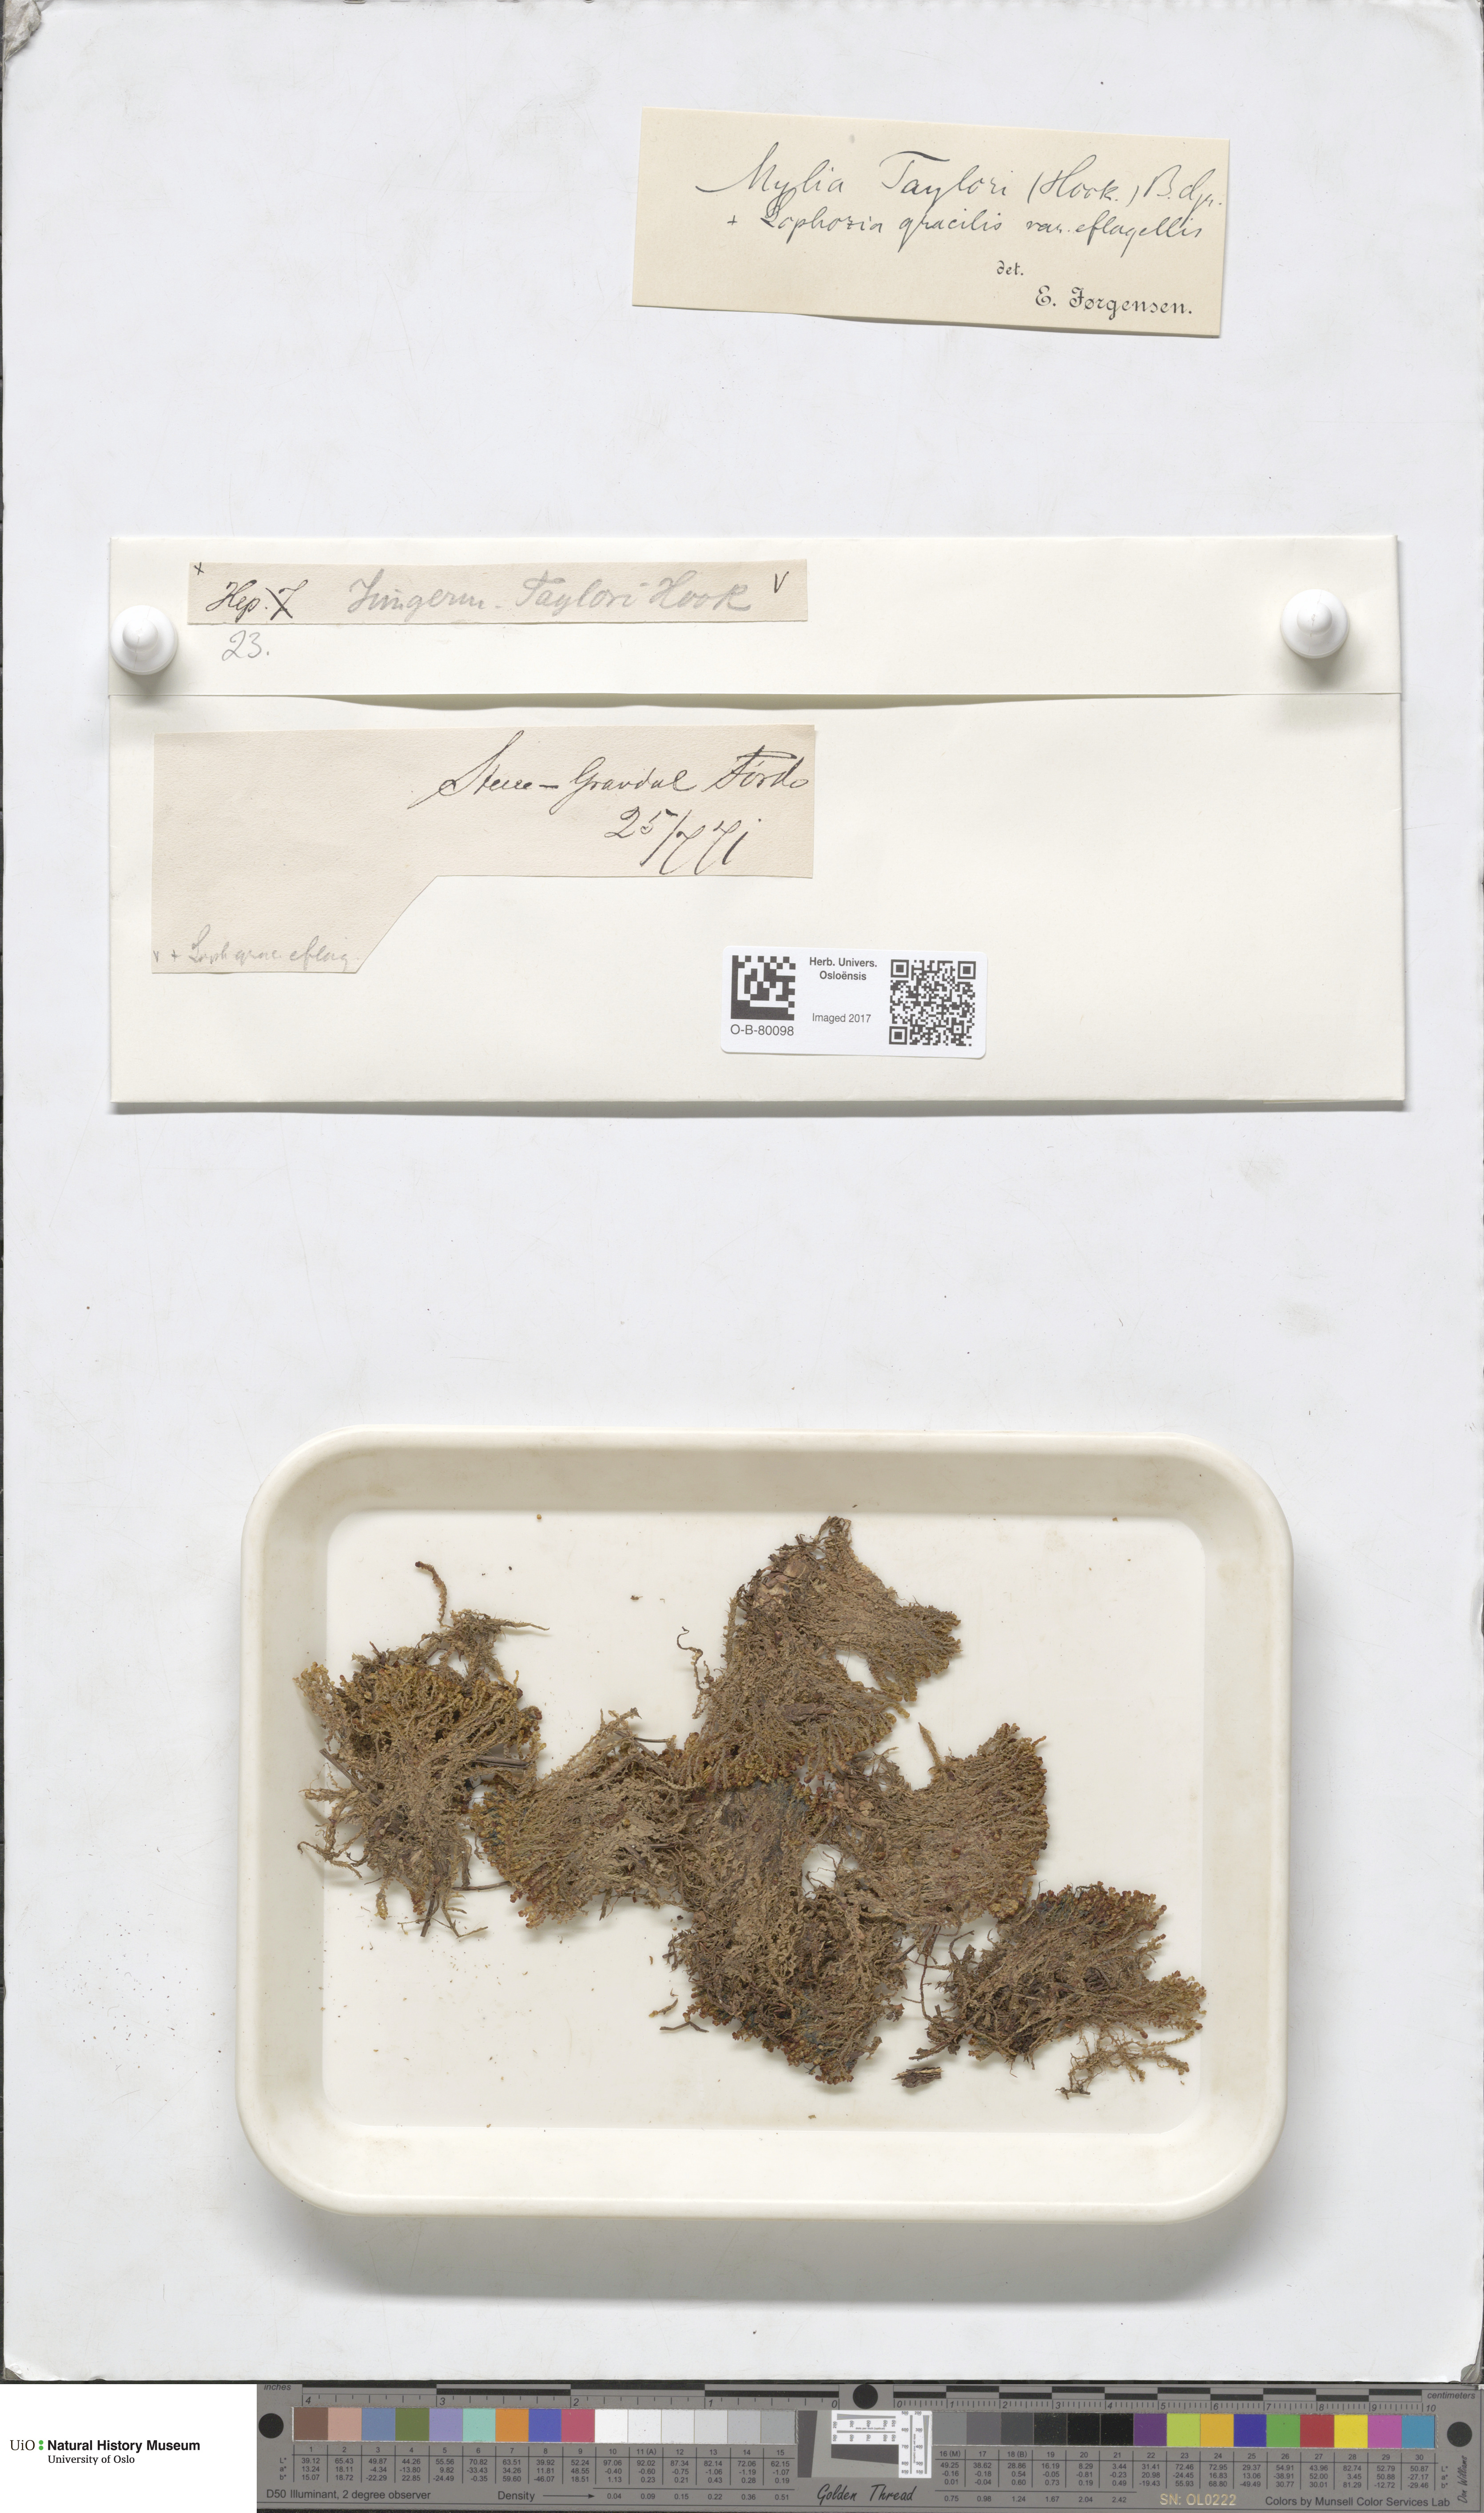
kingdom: Plantae
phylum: Marchantiophyta
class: Jungermanniopsida
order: Jungermanniales
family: Myliaceae
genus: Mylia
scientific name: Mylia taylorii
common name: Taylor s flapwort
